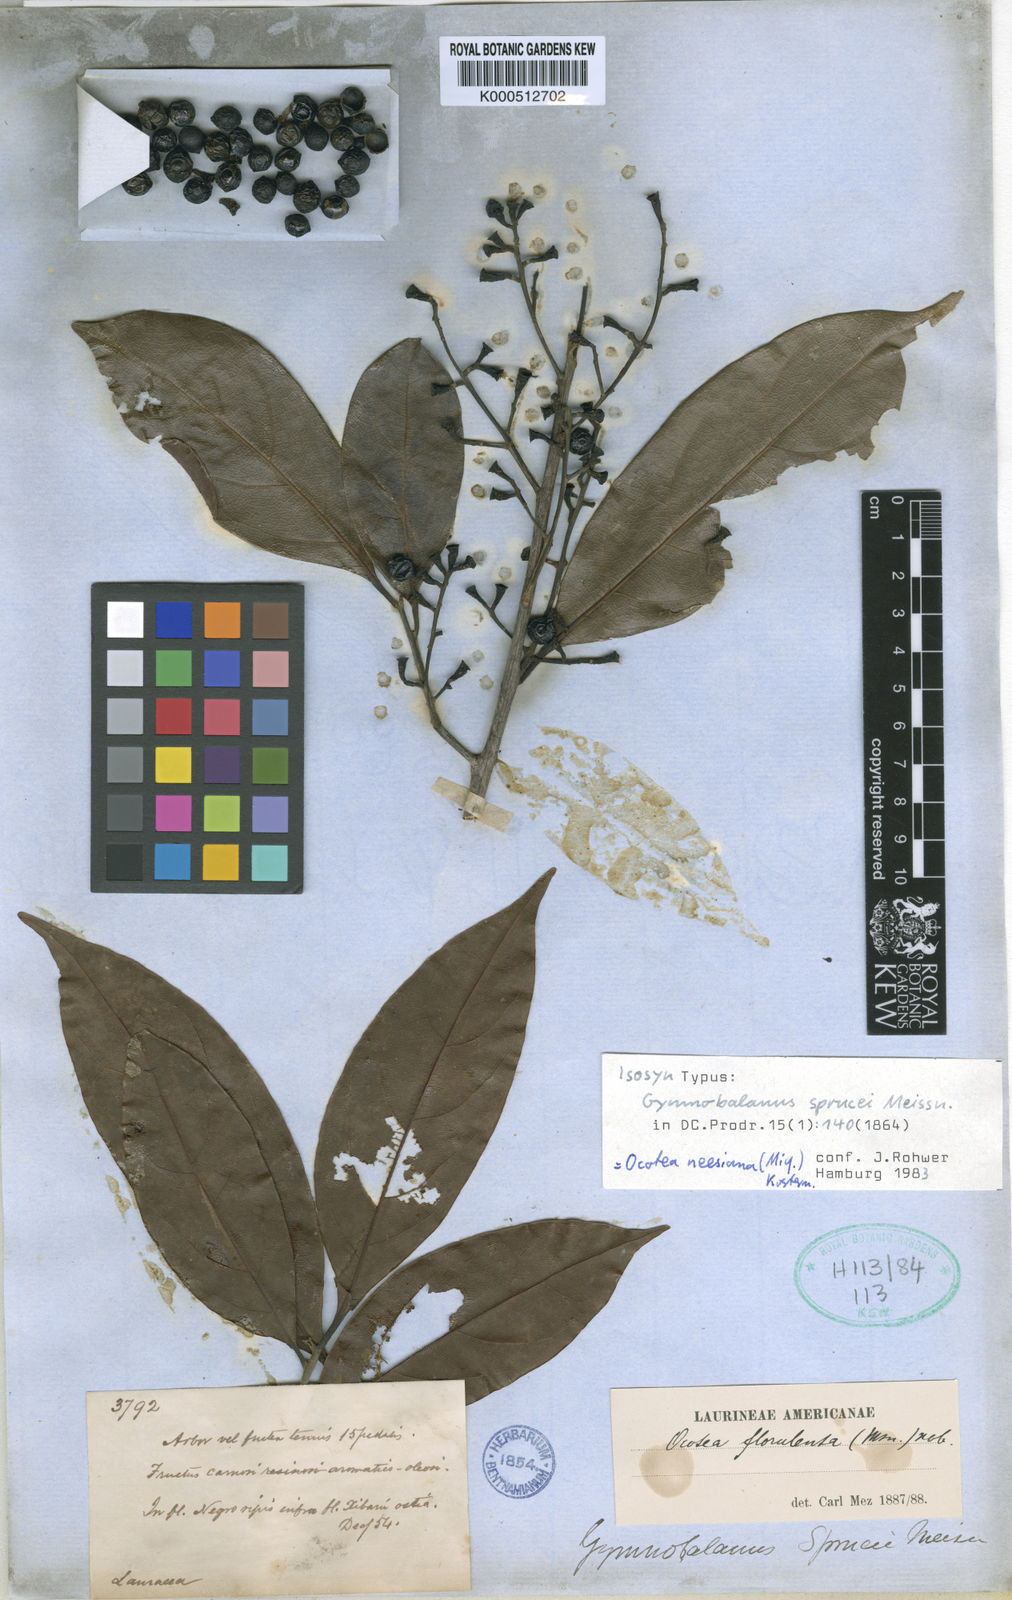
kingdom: Plantae
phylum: Tracheophyta
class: Magnoliopsida
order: Laurales
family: Lauraceae
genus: Ocotea
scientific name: Ocotea neesiana
